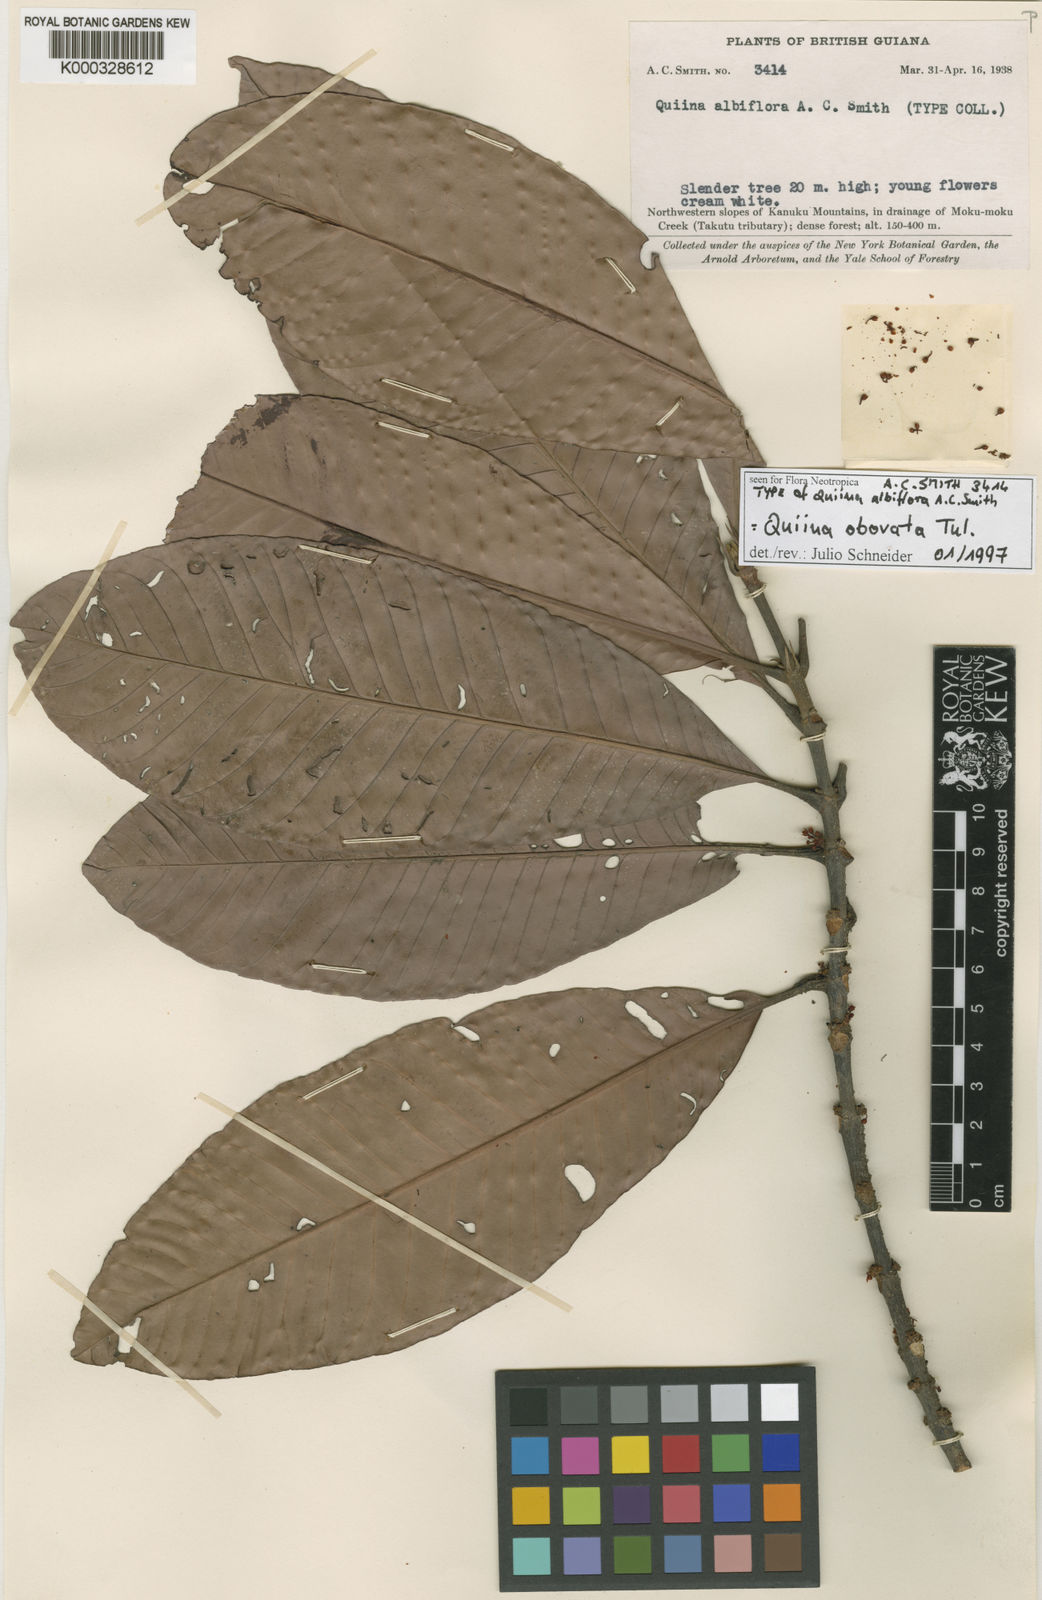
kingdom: Plantae
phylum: Tracheophyta
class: Magnoliopsida
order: Malpighiales
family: Quiinaceae
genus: Quiina
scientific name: Quiina obovata
